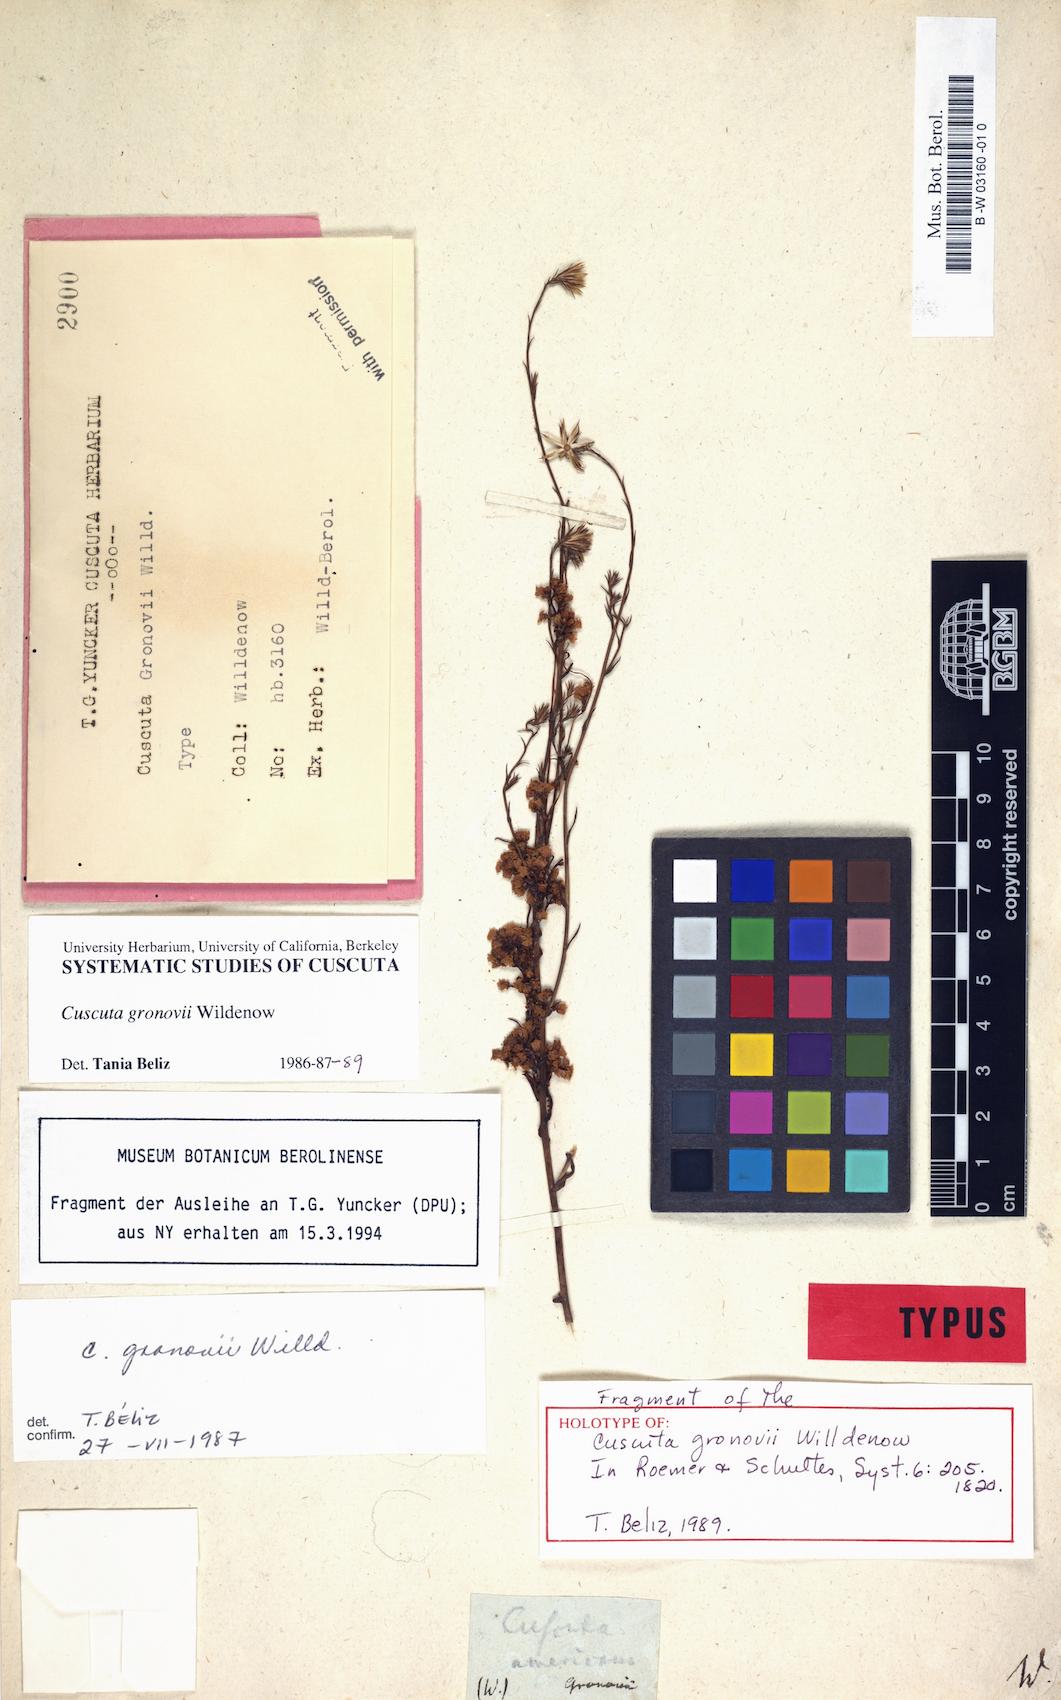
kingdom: Plantae
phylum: Tracheophyta
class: Magnoliopsida
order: Solanales
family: Convolvulaceae
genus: Cuscuta
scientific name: Cuscuta gronovii
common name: Common dodder
